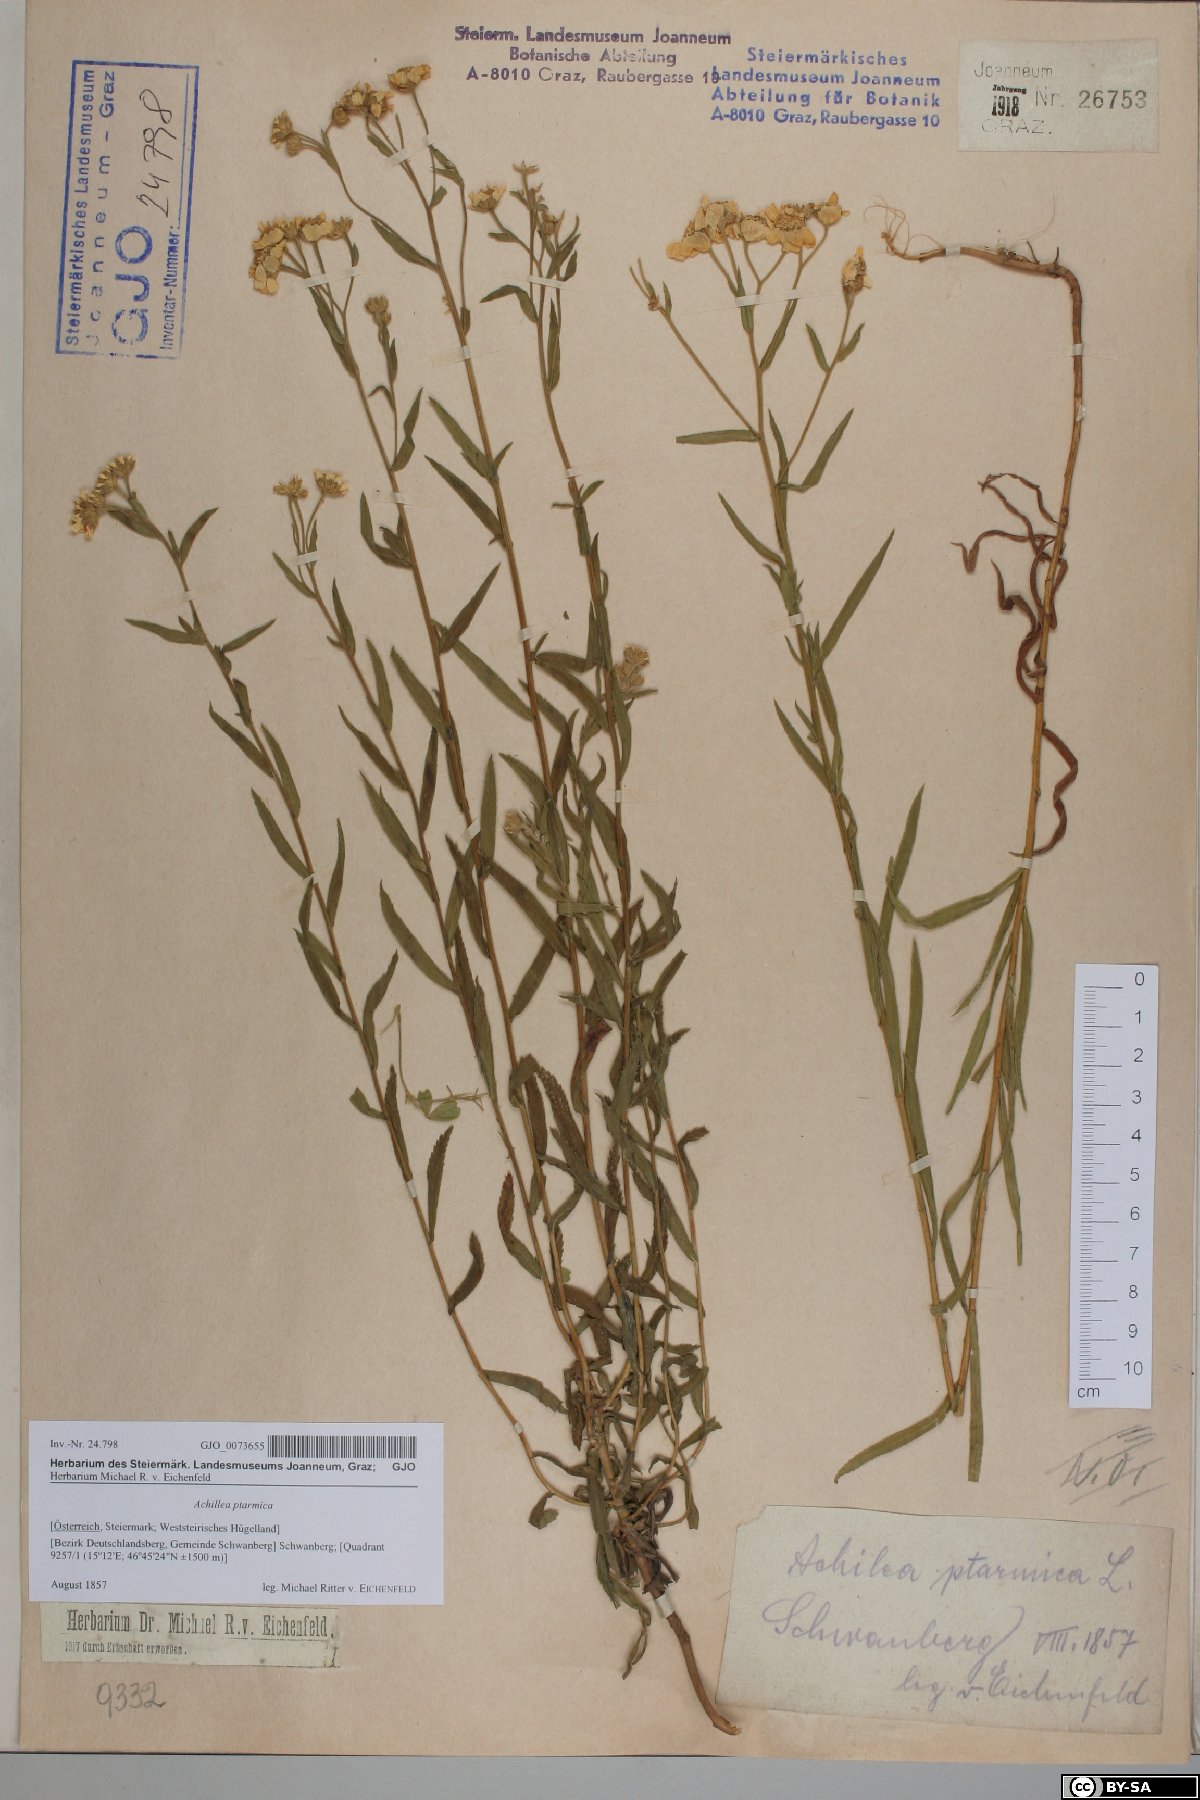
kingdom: Plantae
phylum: Tracheophyta
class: Magnoliopsida
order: Asterales
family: Asteraceae
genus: Achillea
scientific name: Achillea ptarmica
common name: Sneezeweed
